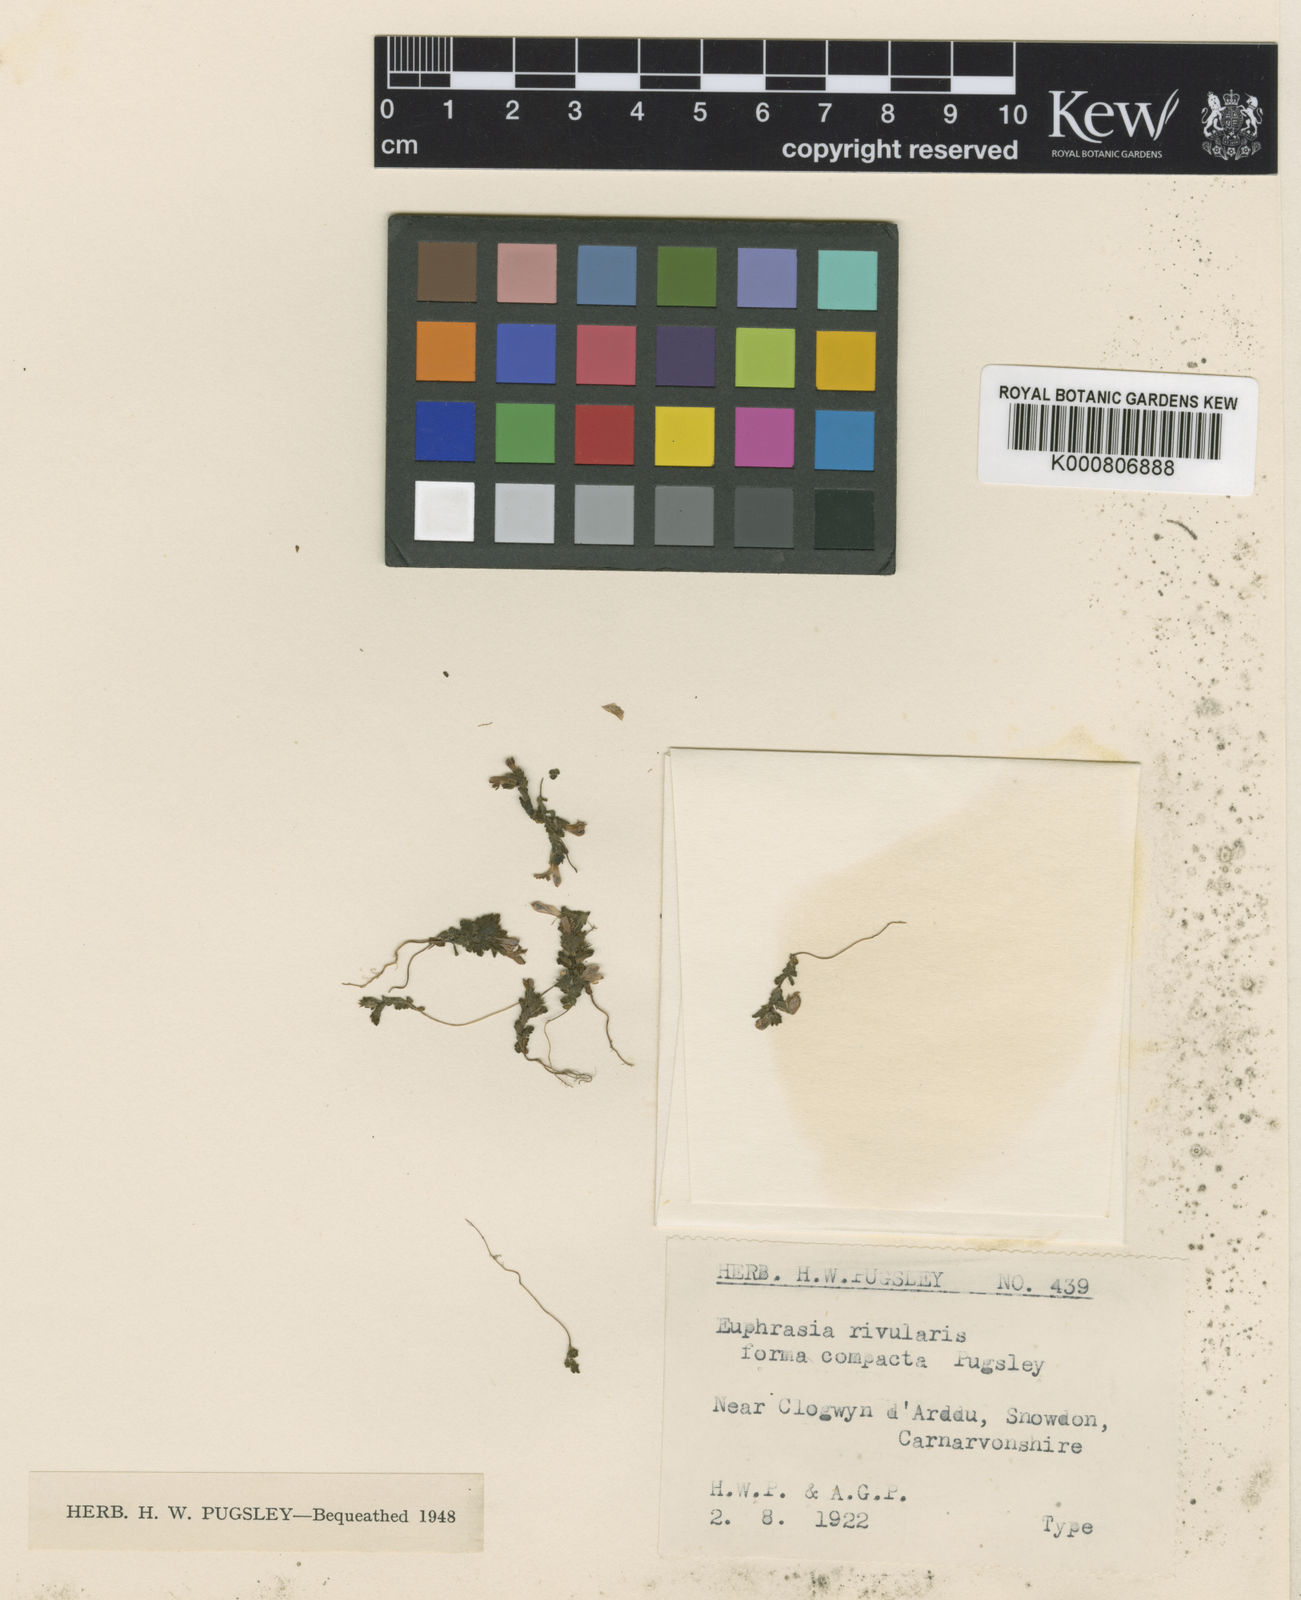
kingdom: Plantae
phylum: Tracheophyta
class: Magnoliopsida
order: Lamiales
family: Orobanchaceae
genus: Euphrasia
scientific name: Euphrasia rivularis
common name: Snowdon eyebright
